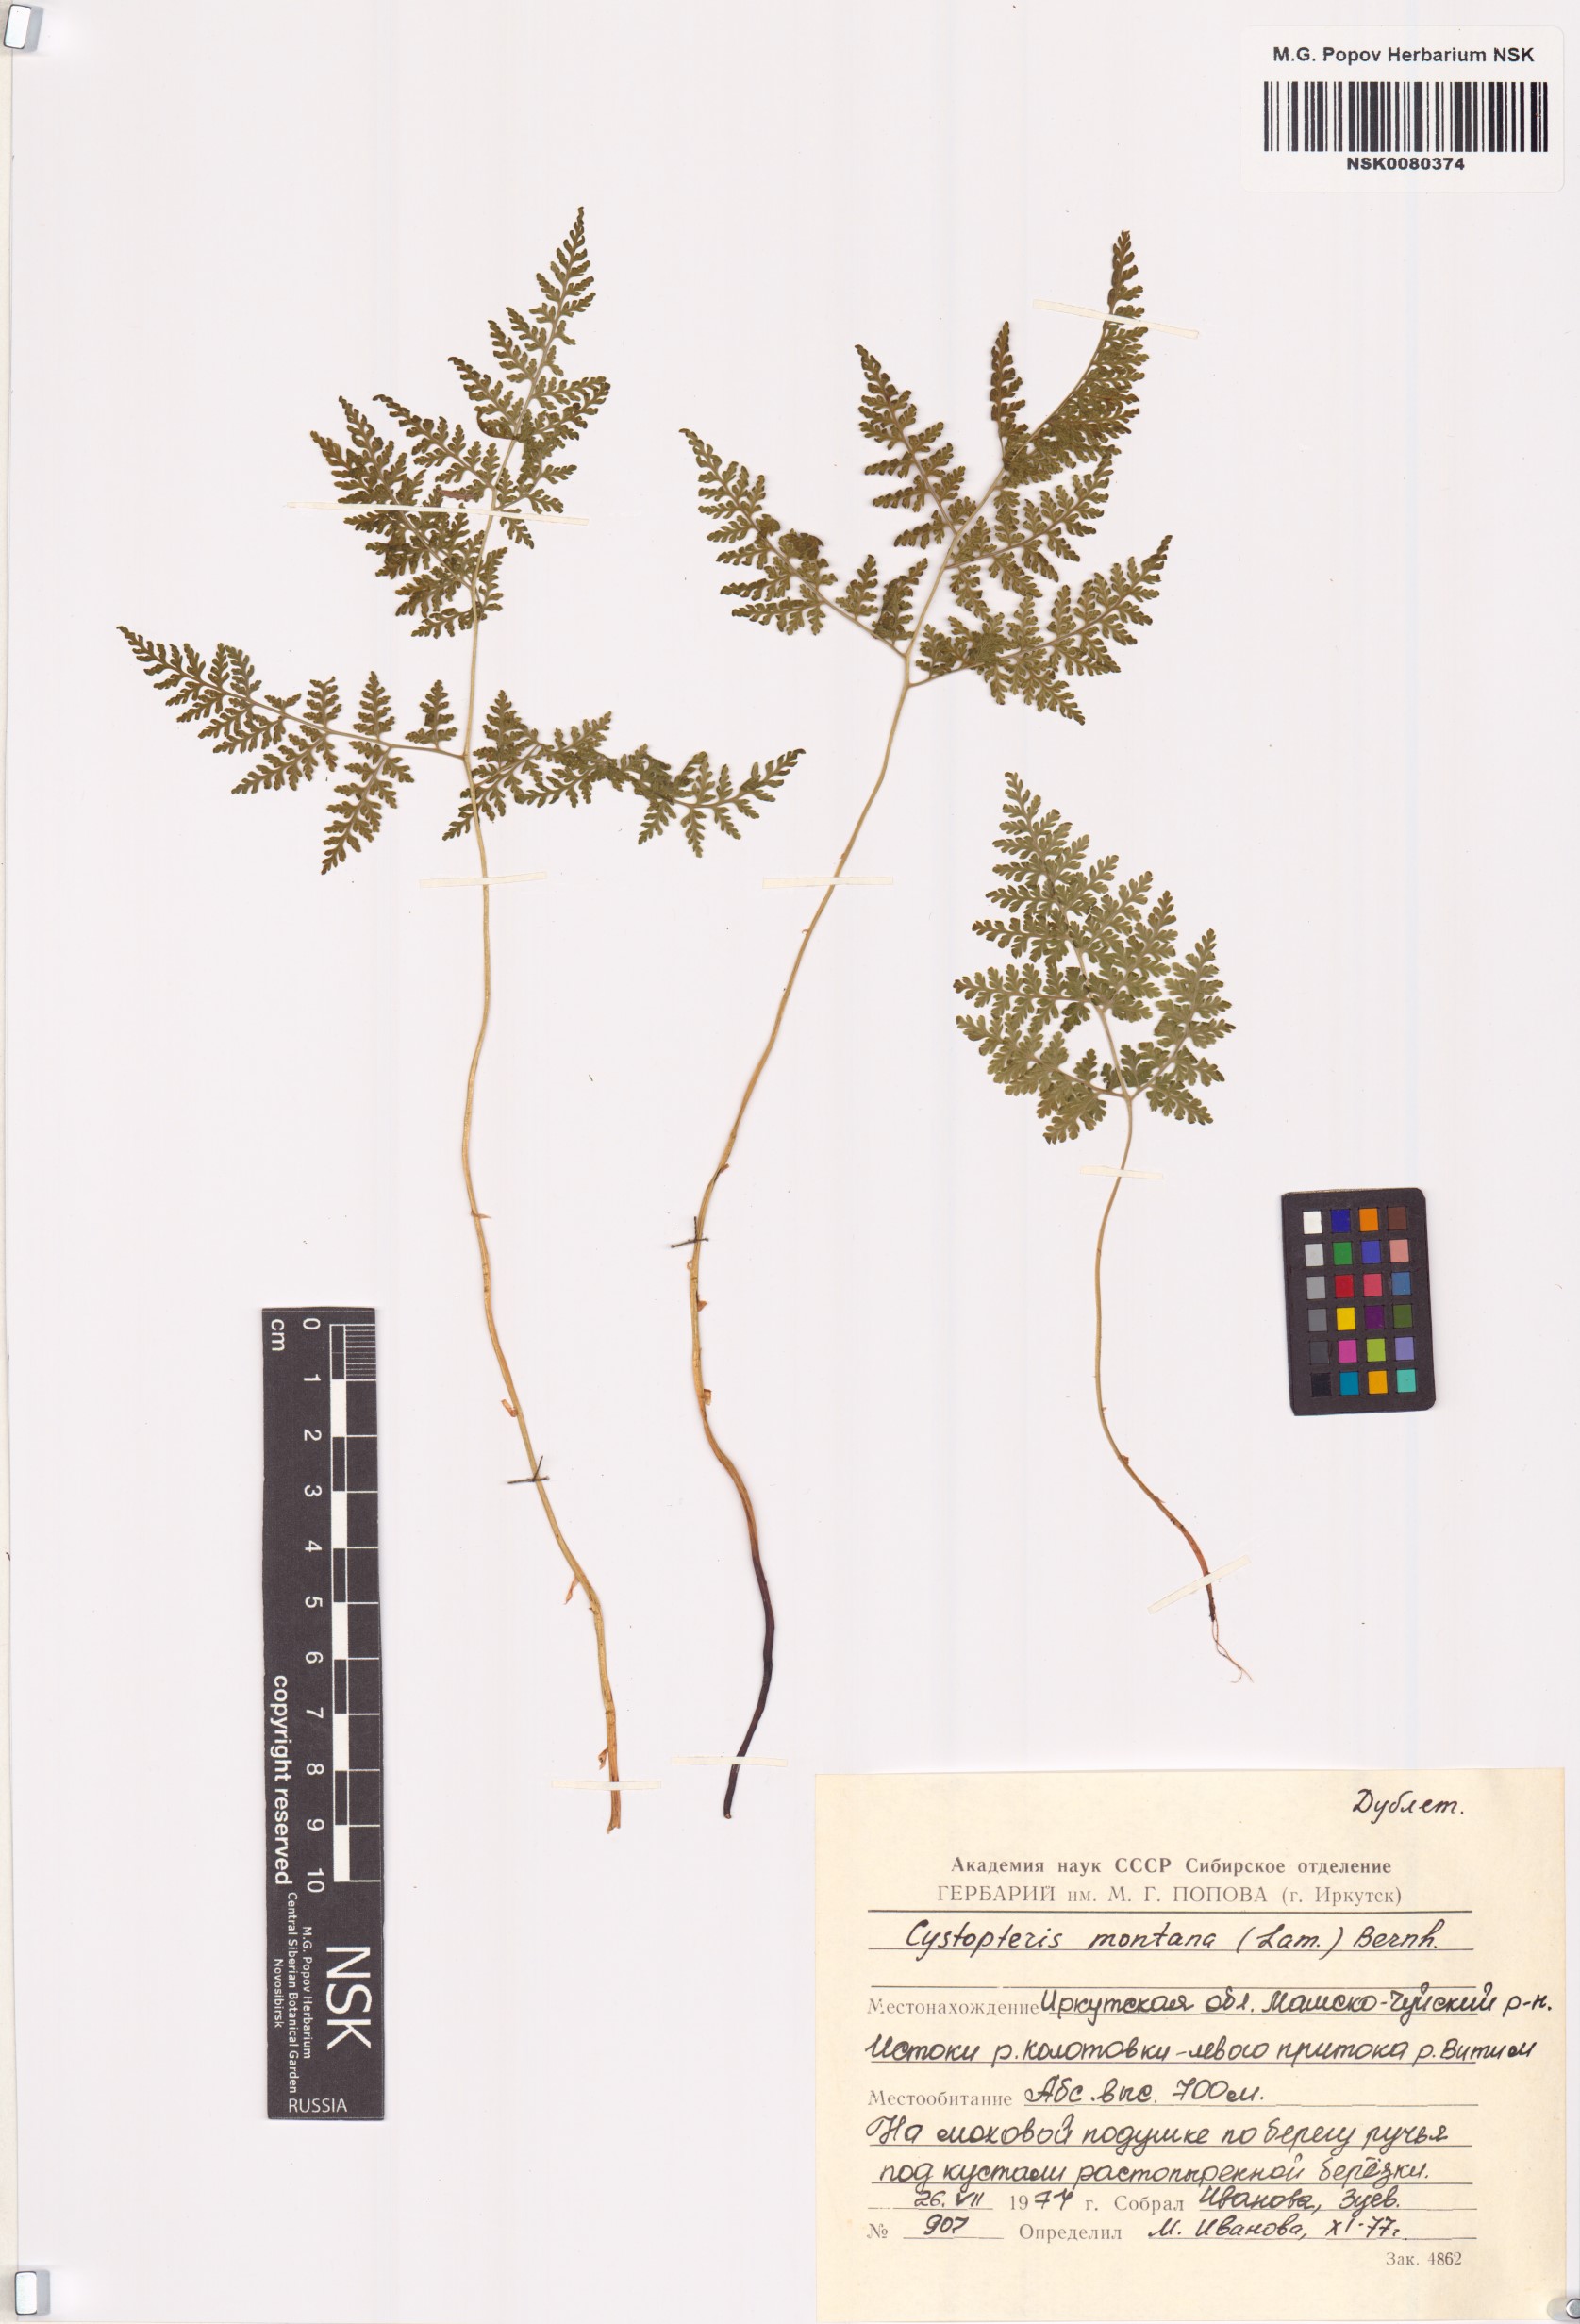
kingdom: Plantae
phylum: Tracheophyta
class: Polypodiopsida
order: Polypodiales
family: Cystopteridaceae
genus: Cystopteris
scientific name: Cystopteris montana
